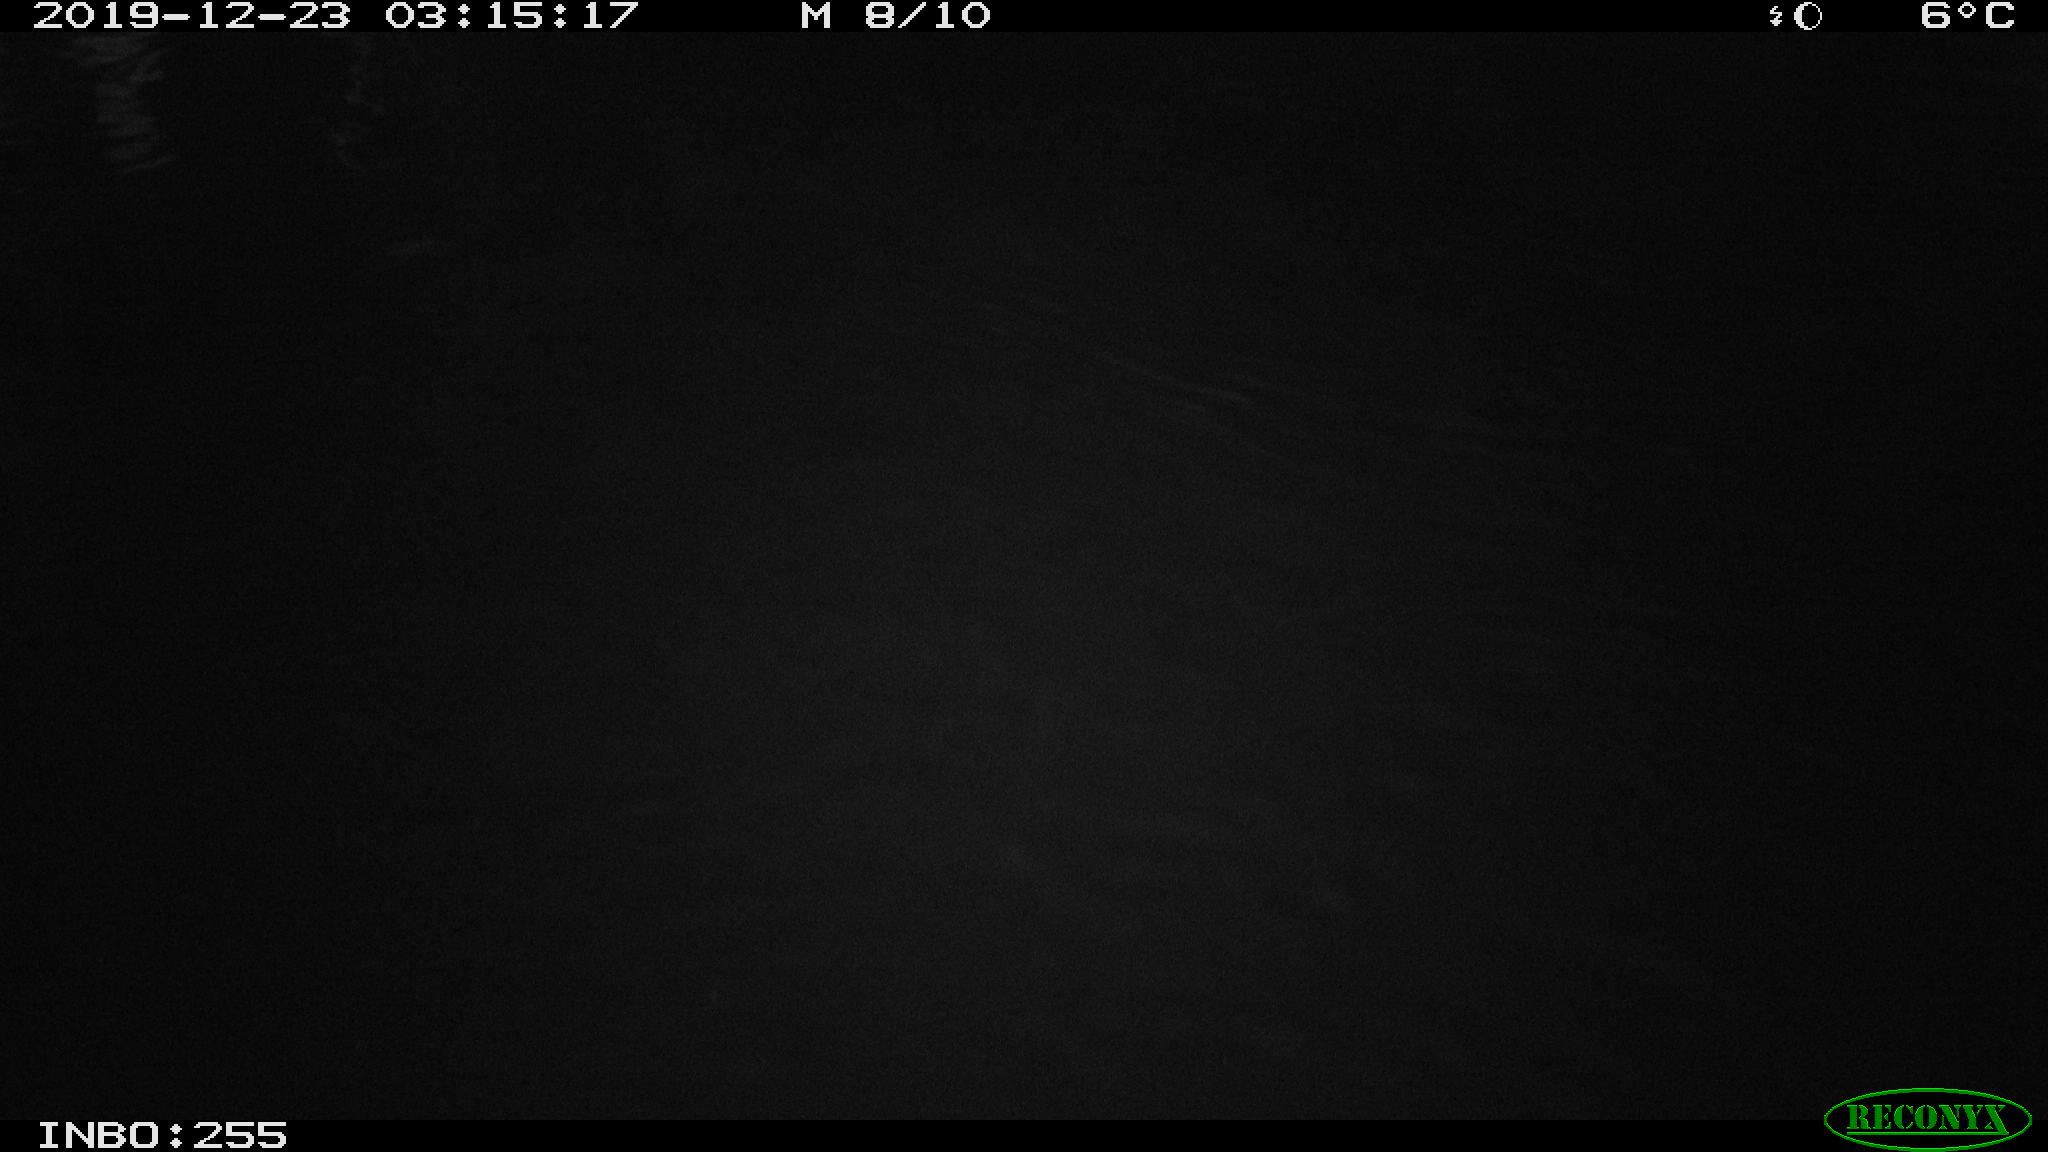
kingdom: Animalia
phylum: Chordata
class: Aves
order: Anseriformes
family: Anatidae
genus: Anas
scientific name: Anas platyrhynchos
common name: Mallard
